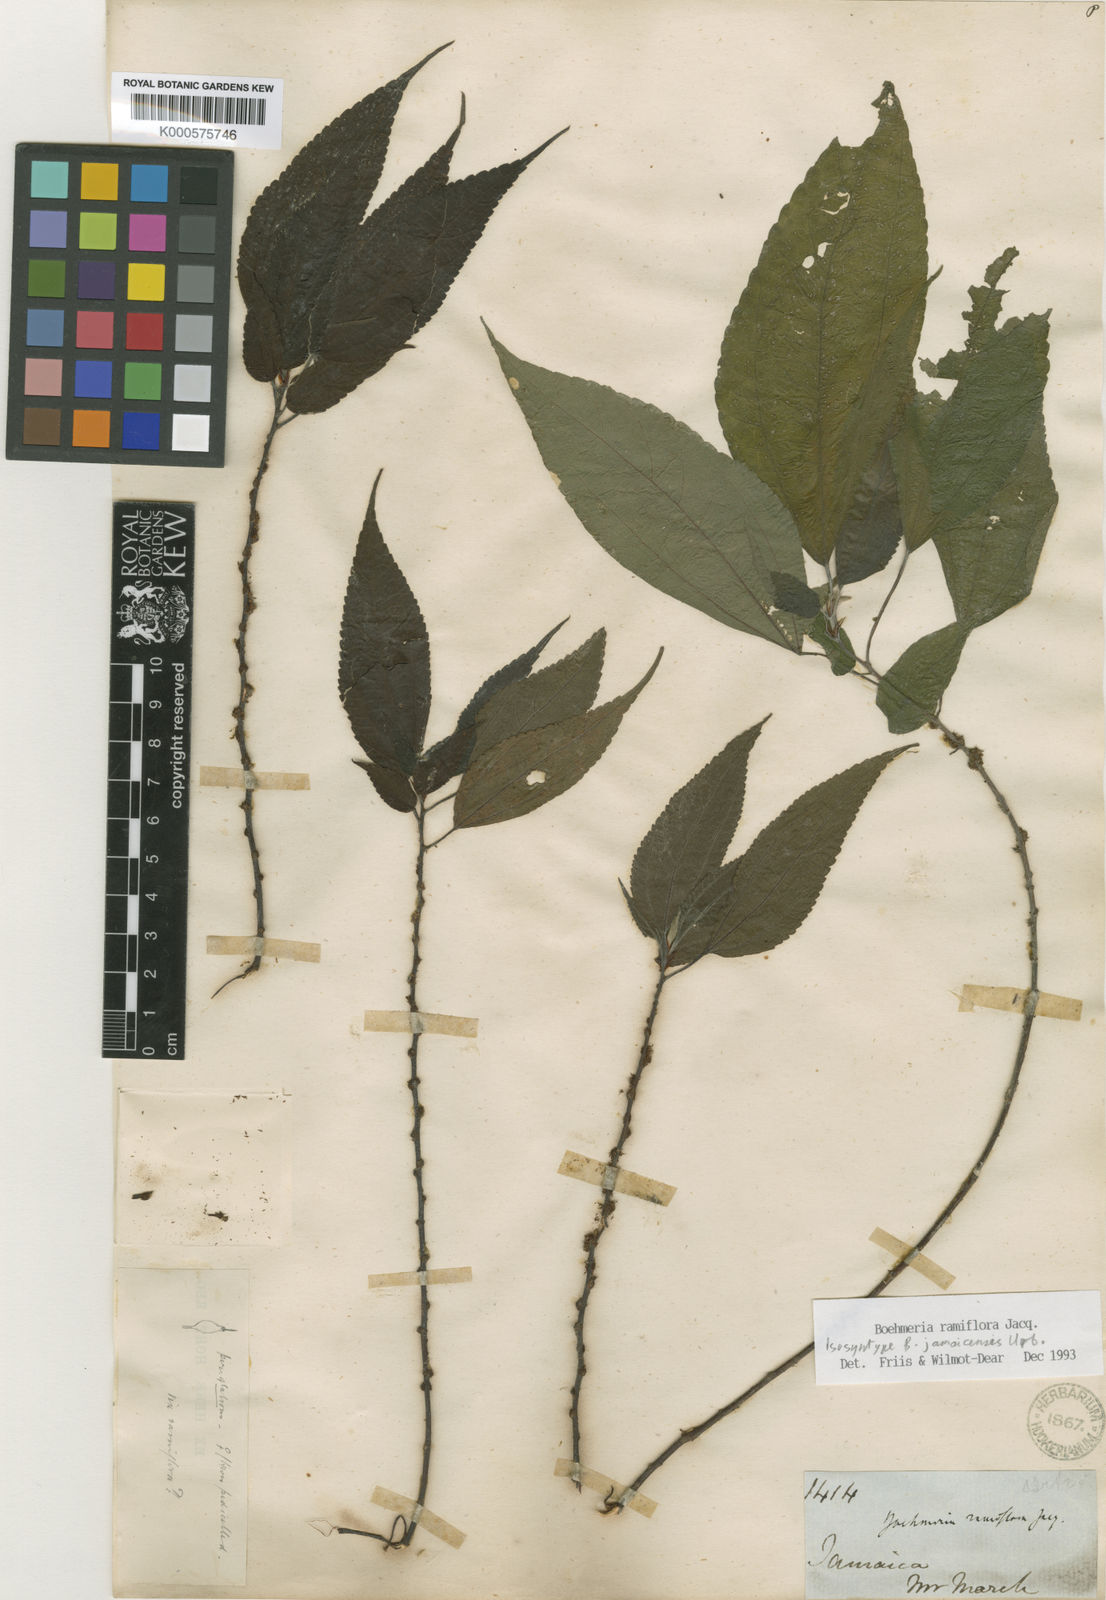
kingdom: Plantae
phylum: Tracheophyta
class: Magnoliopsida
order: Rosales
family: Urticaceae
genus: Boehmeria
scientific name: Boehmeria ramiflora
